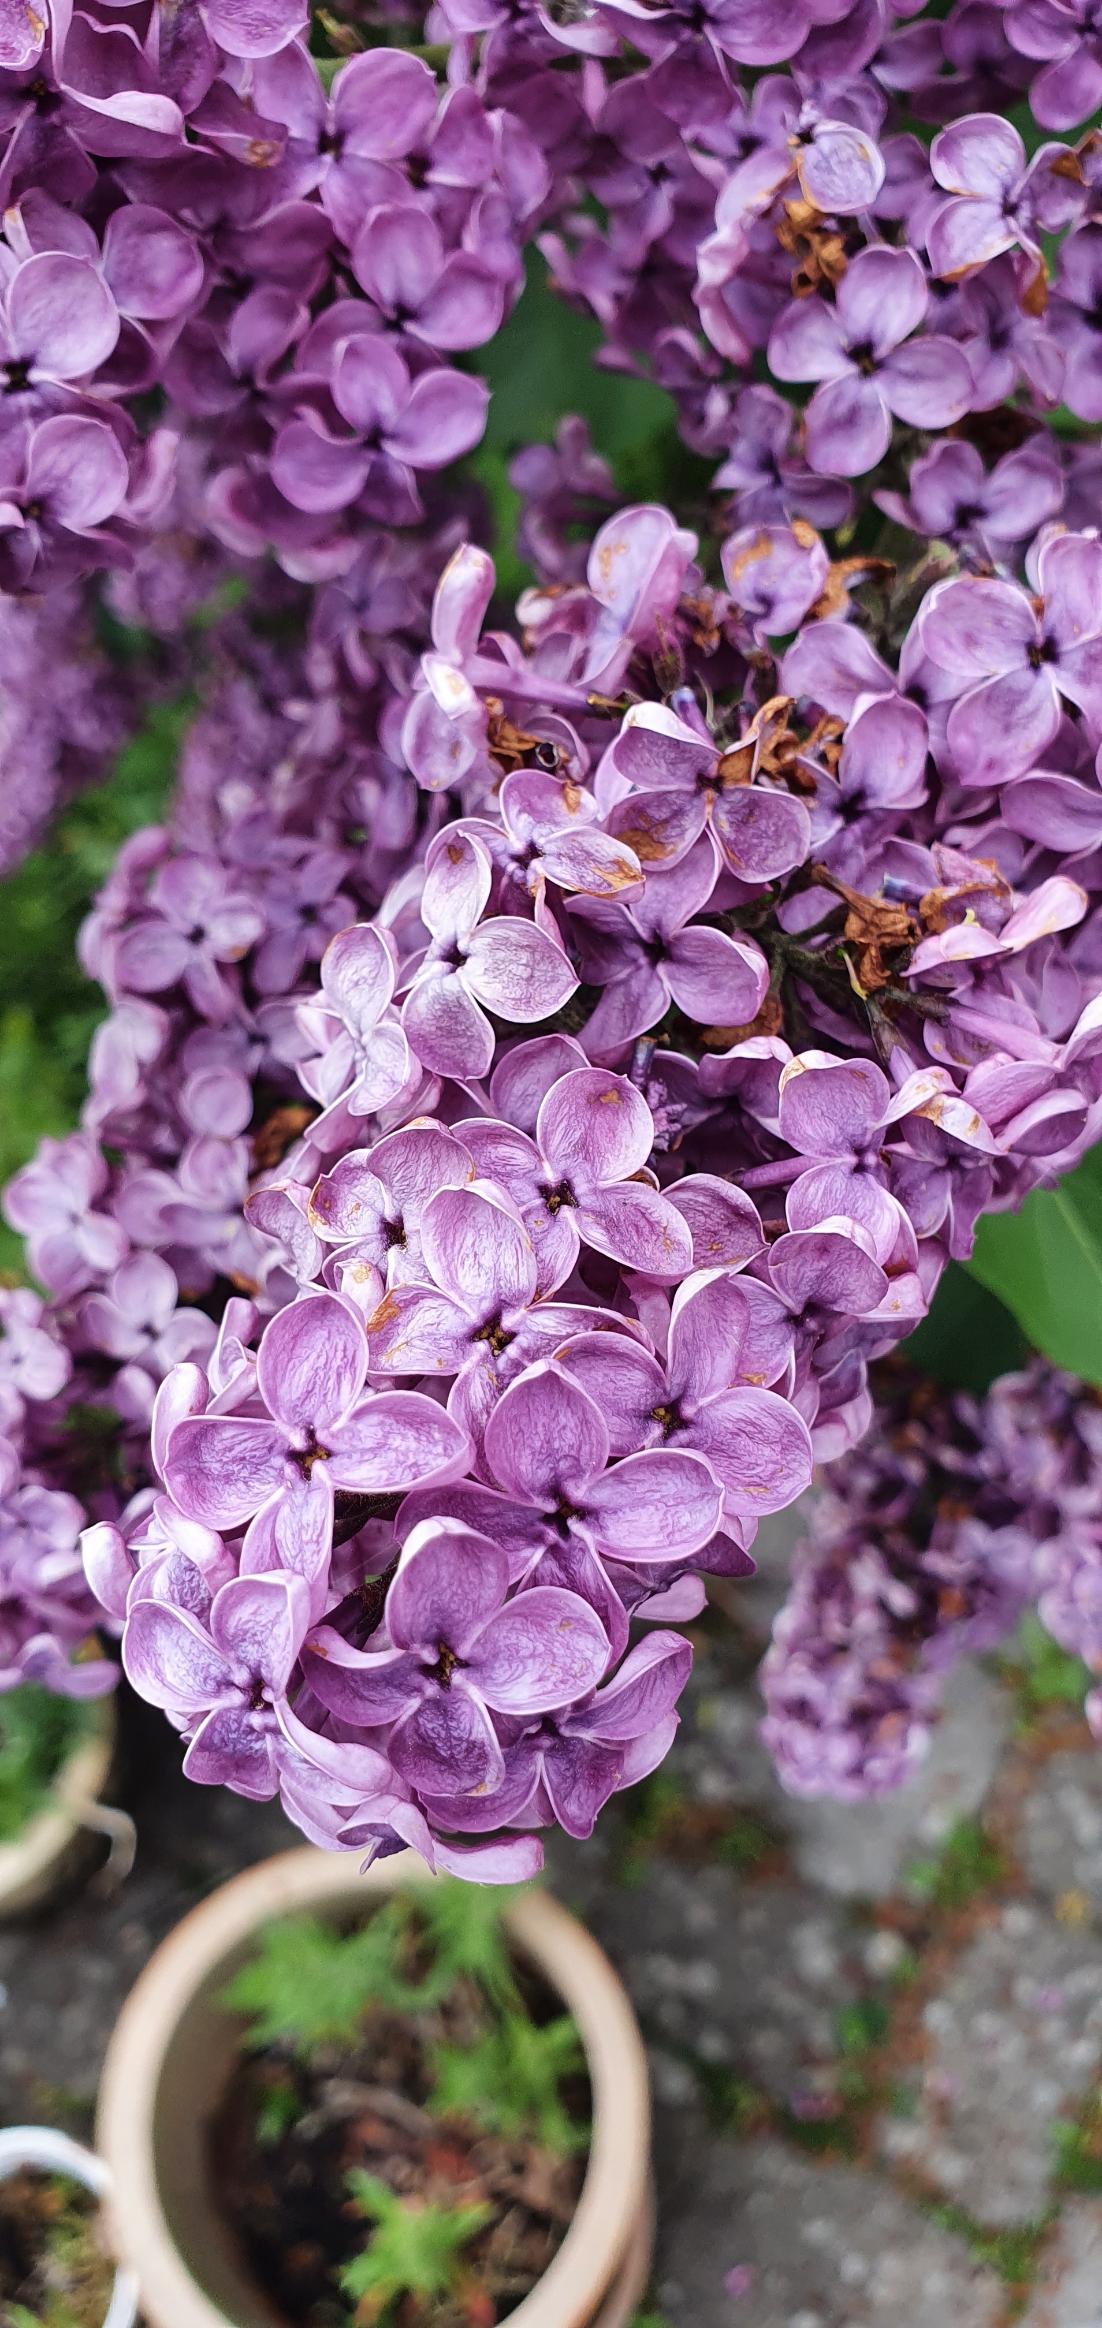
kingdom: Plantae
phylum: Tracheophyta
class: Magnoliopsida
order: Lamiales
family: Oleaceae
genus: Syringa
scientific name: Syringa vulgaris
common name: Syren
